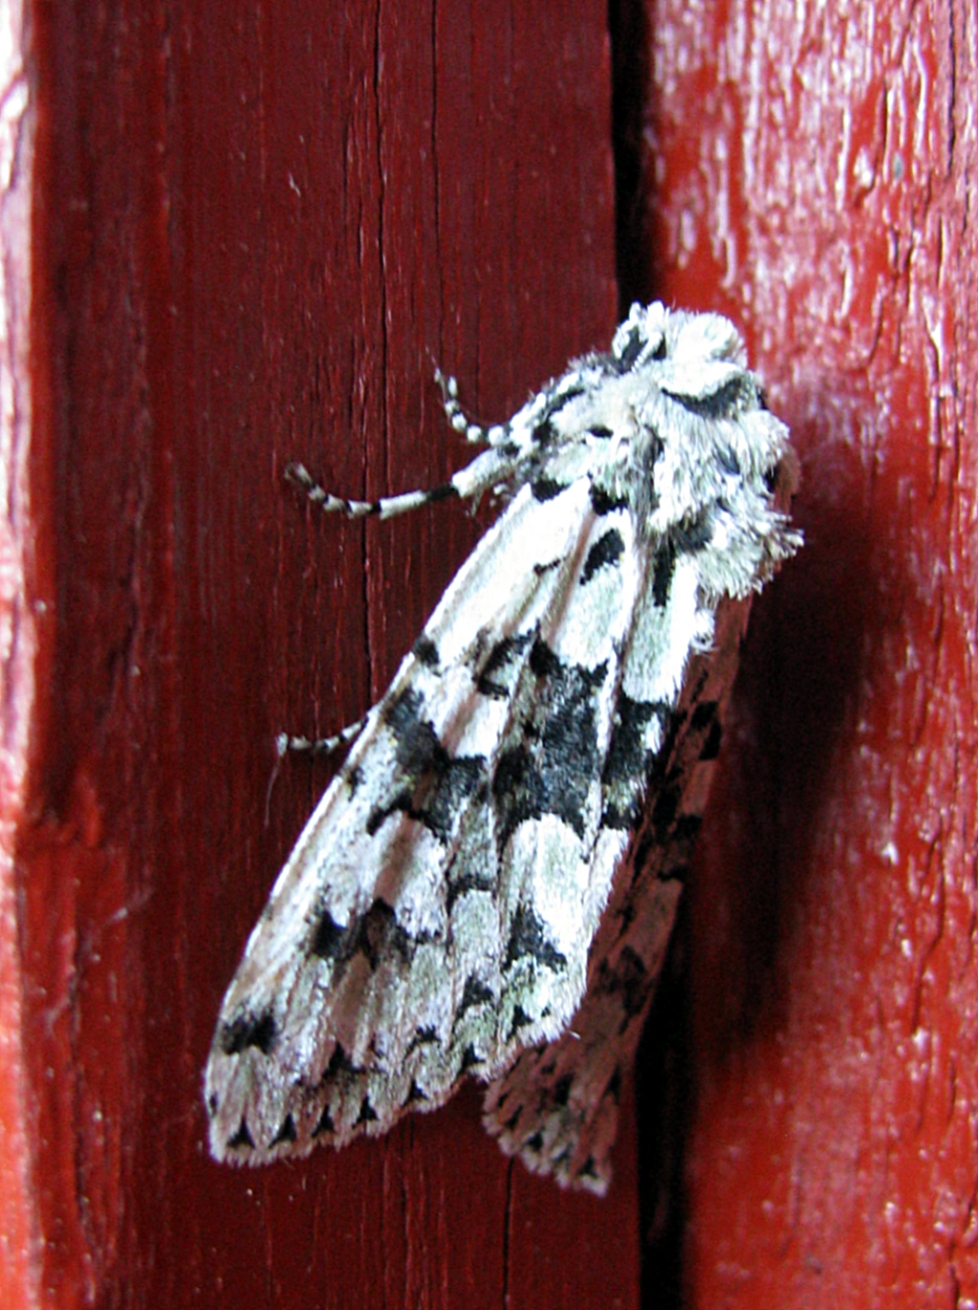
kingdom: Animalia
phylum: Arthropoda
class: Insecta
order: Lepidoptera
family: Noctuidae
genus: Griposia
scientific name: Griposia aprilina
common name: Merveille du jour
